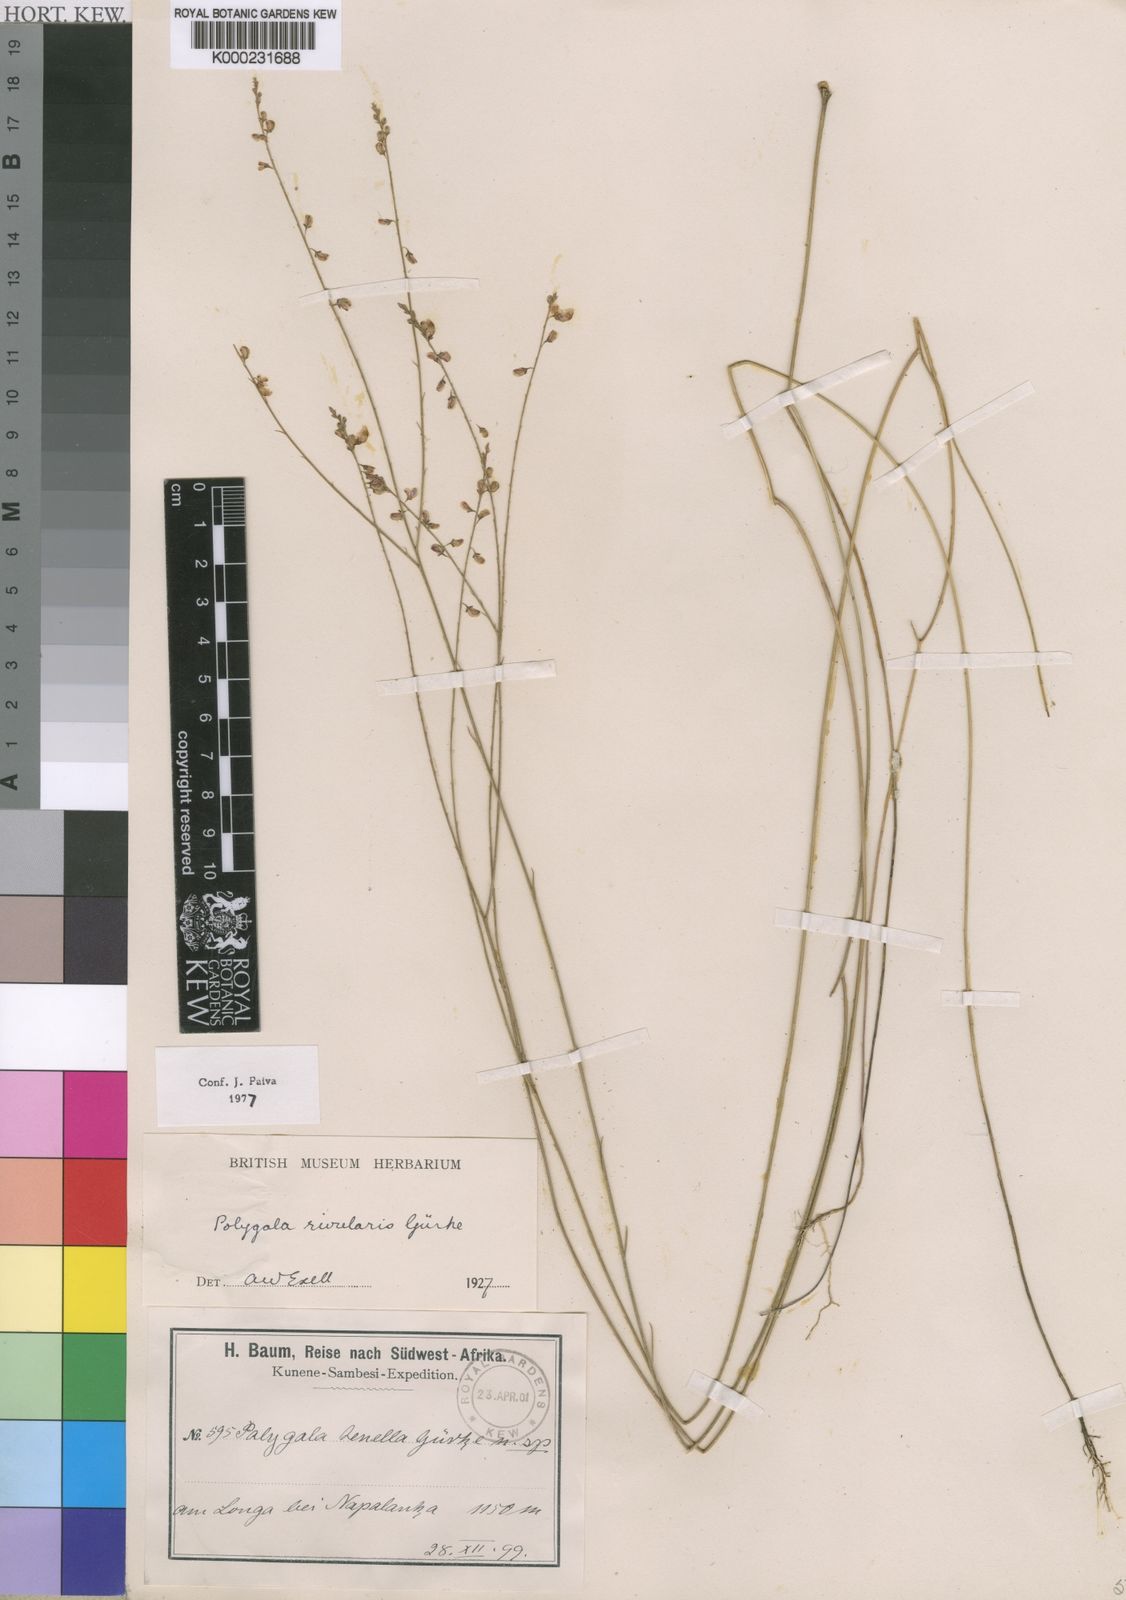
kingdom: Plantae
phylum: Tracheophyta
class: Magnoliopsida
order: Fabales
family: Polygalaceae
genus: Polygala
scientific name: Polygala
